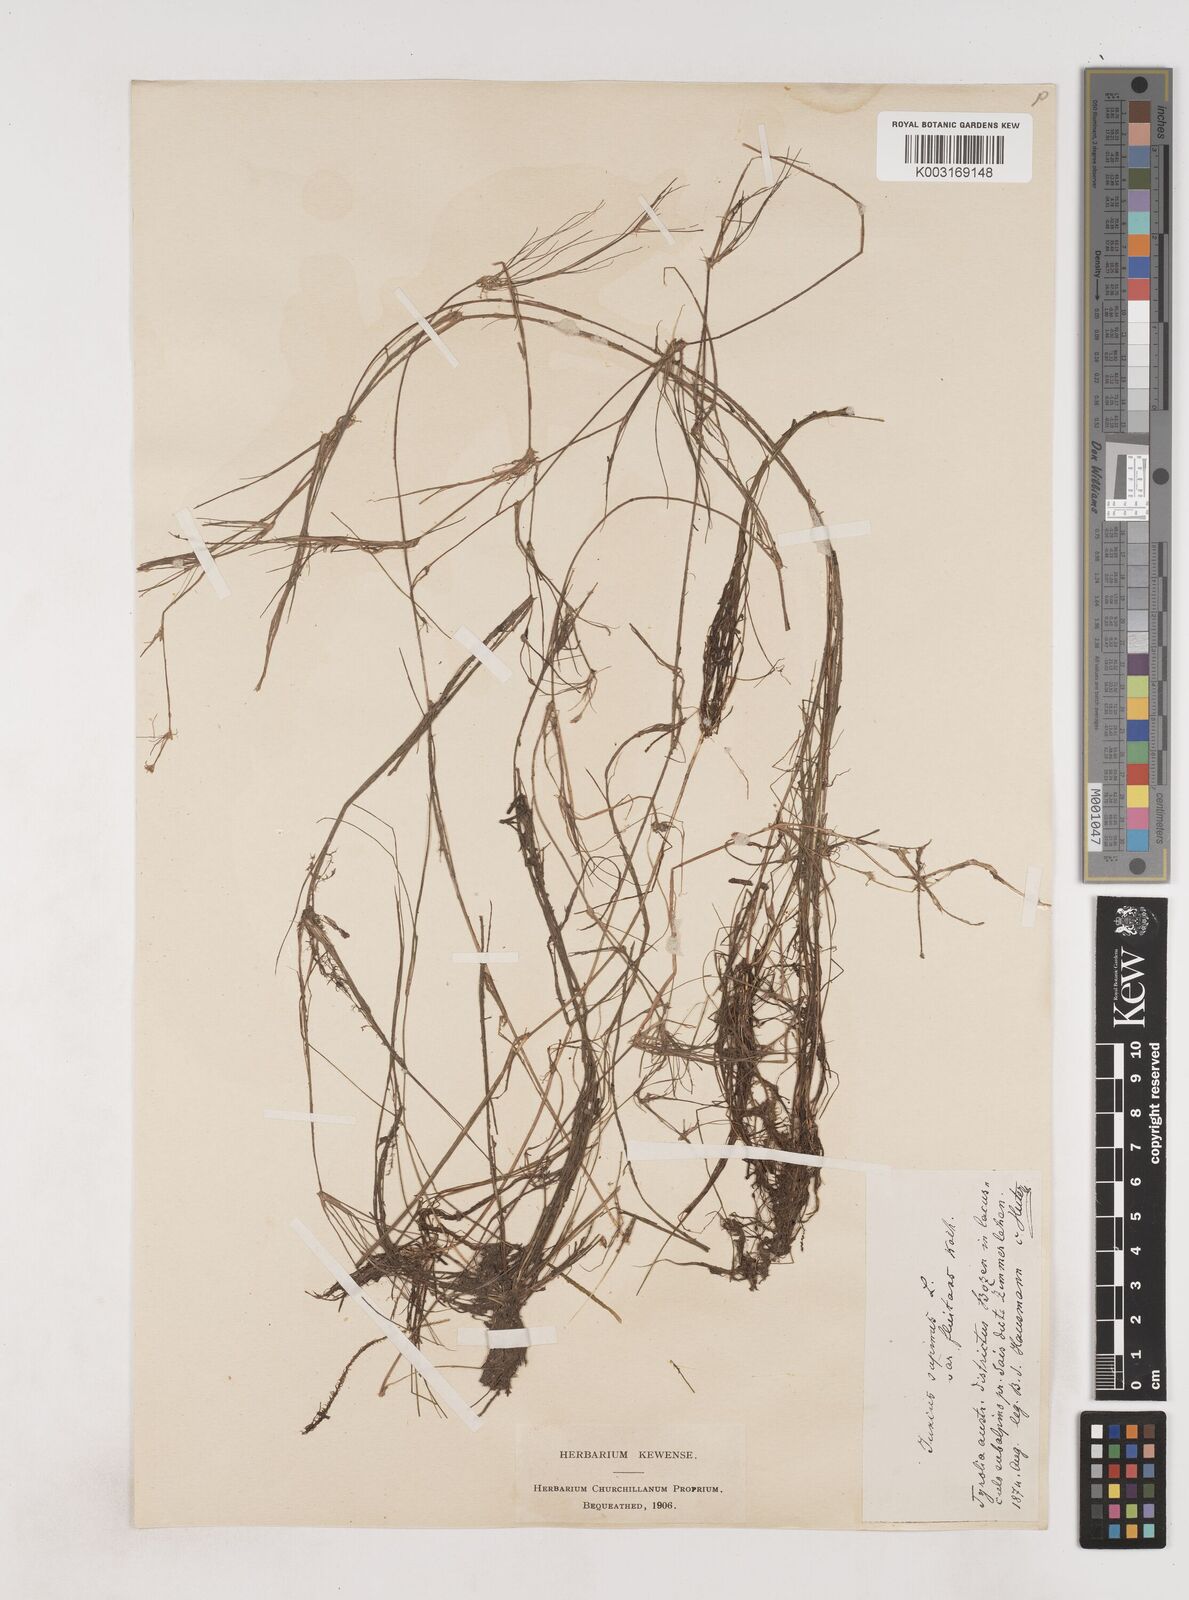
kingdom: Plantae
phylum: Tracheophyta
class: Liliopsida
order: Poales
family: Juncaceae
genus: Juncus
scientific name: Juncus bulbosus
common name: Bulbous rush
